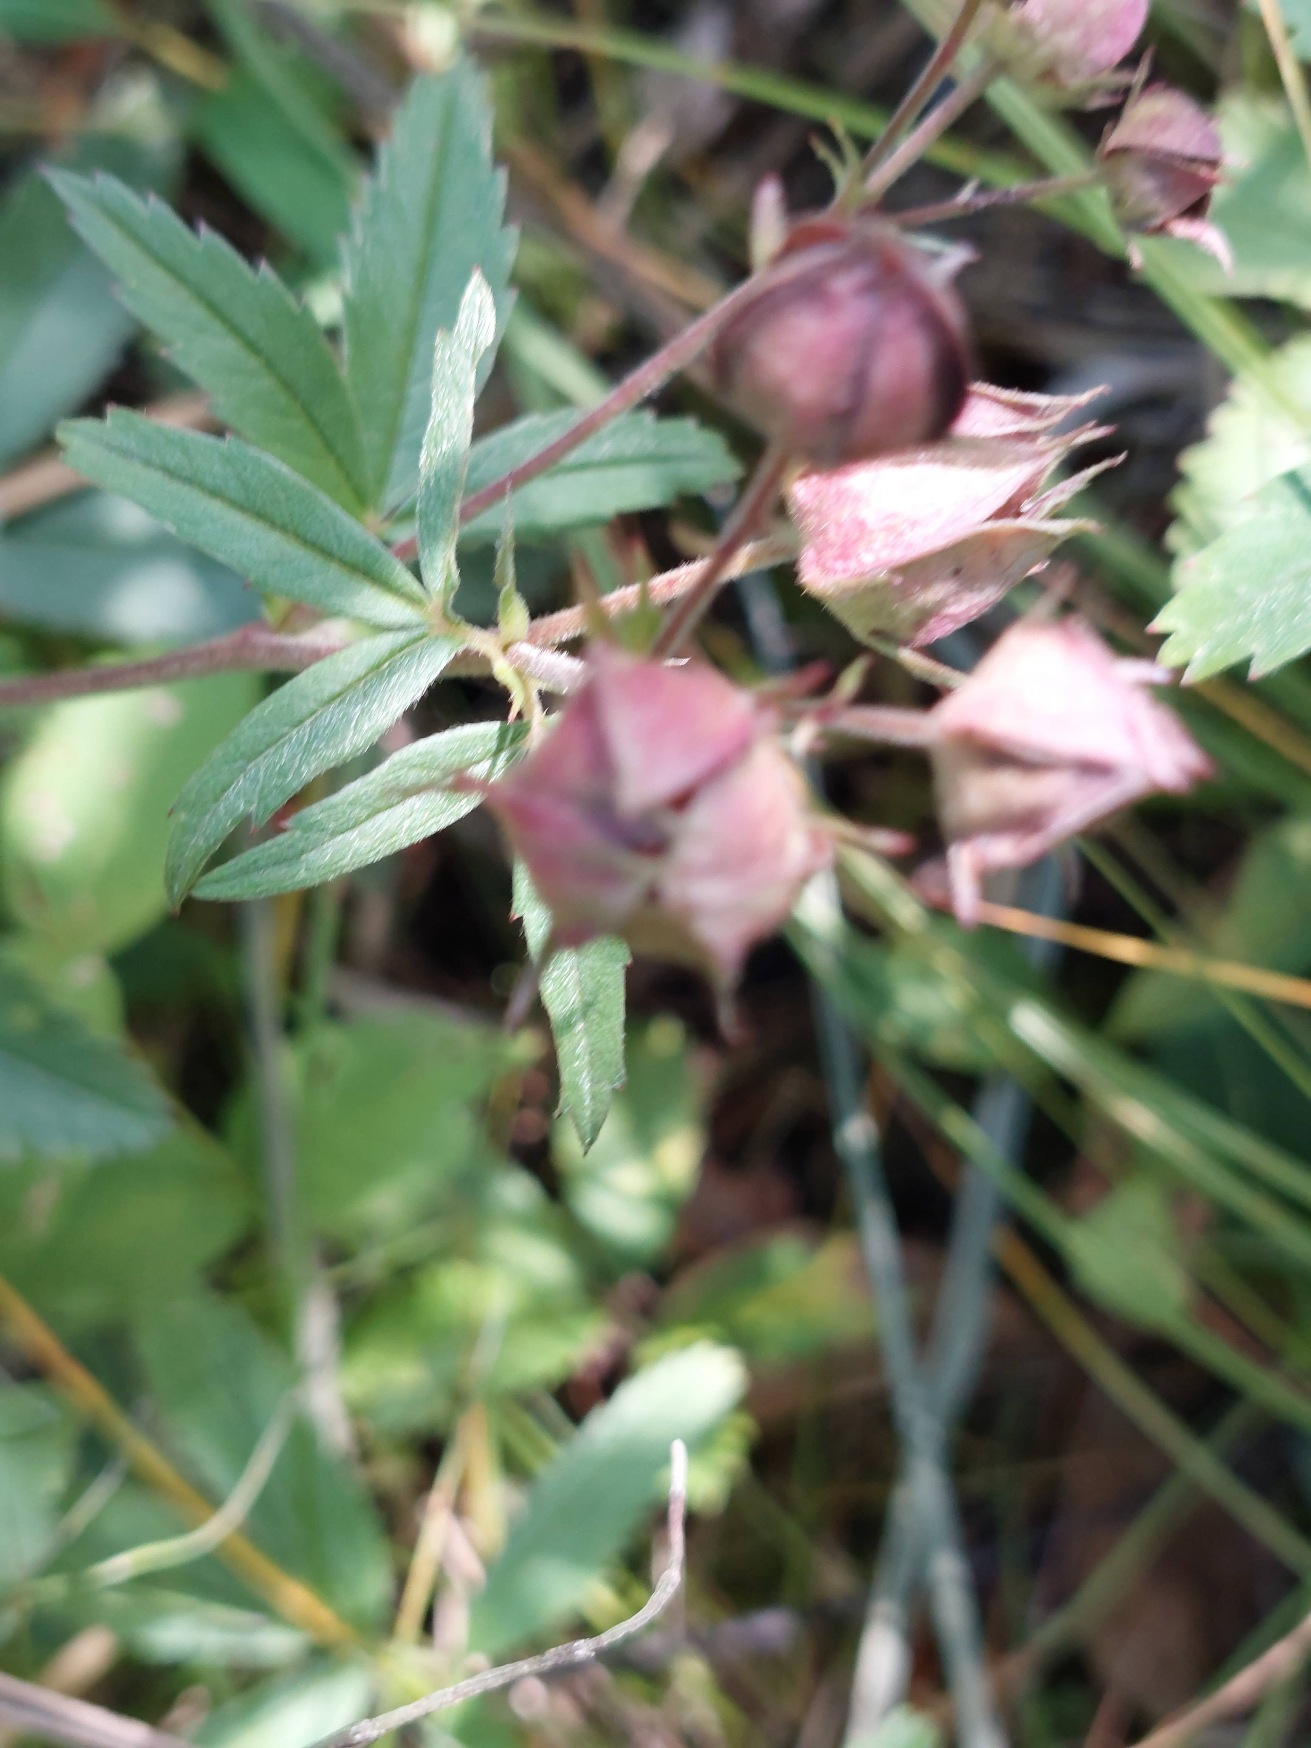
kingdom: Plantae
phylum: Tracheophyta
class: Magnoliopsida
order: Rosales
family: Rosaceae
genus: Comarum
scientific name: Comarum palustre
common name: Kragefod
